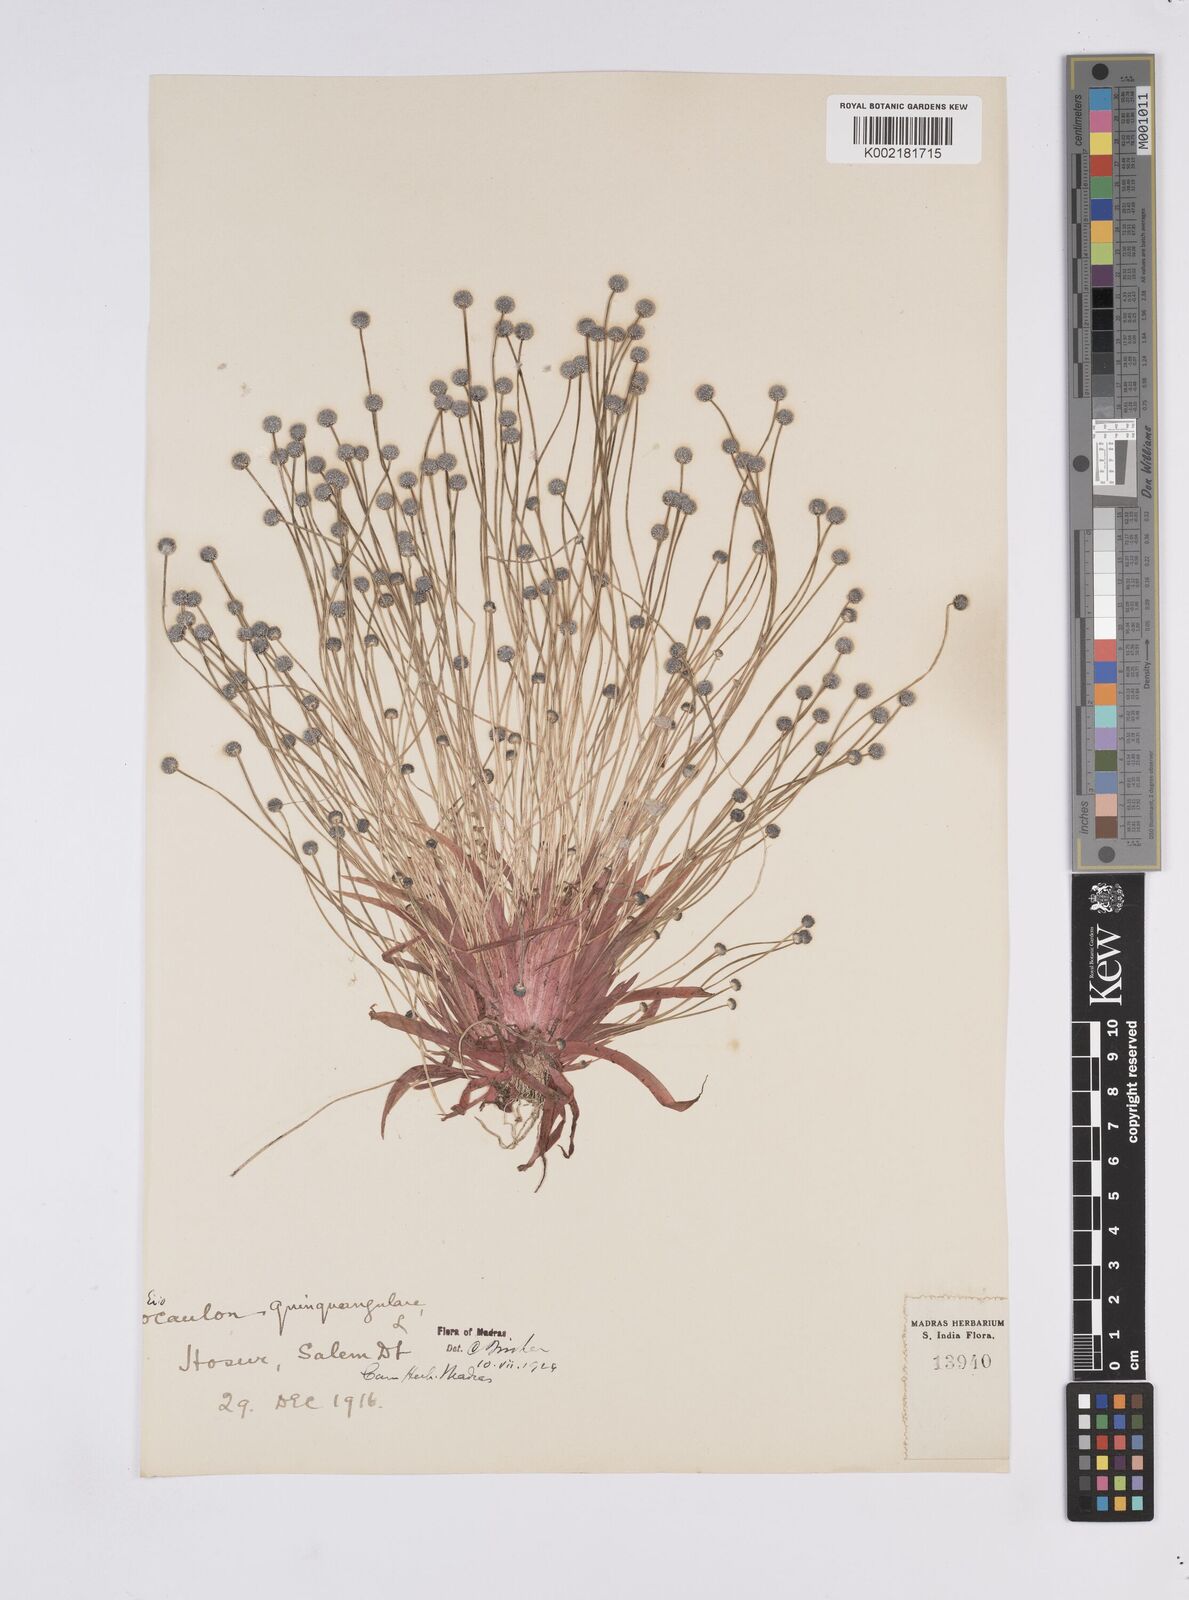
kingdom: Plantae
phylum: Tracheophyta
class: Liliopsida
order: Poales
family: Eriocaulaceae
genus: Eriocaulon
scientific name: Eriocaulon quinquangulare
